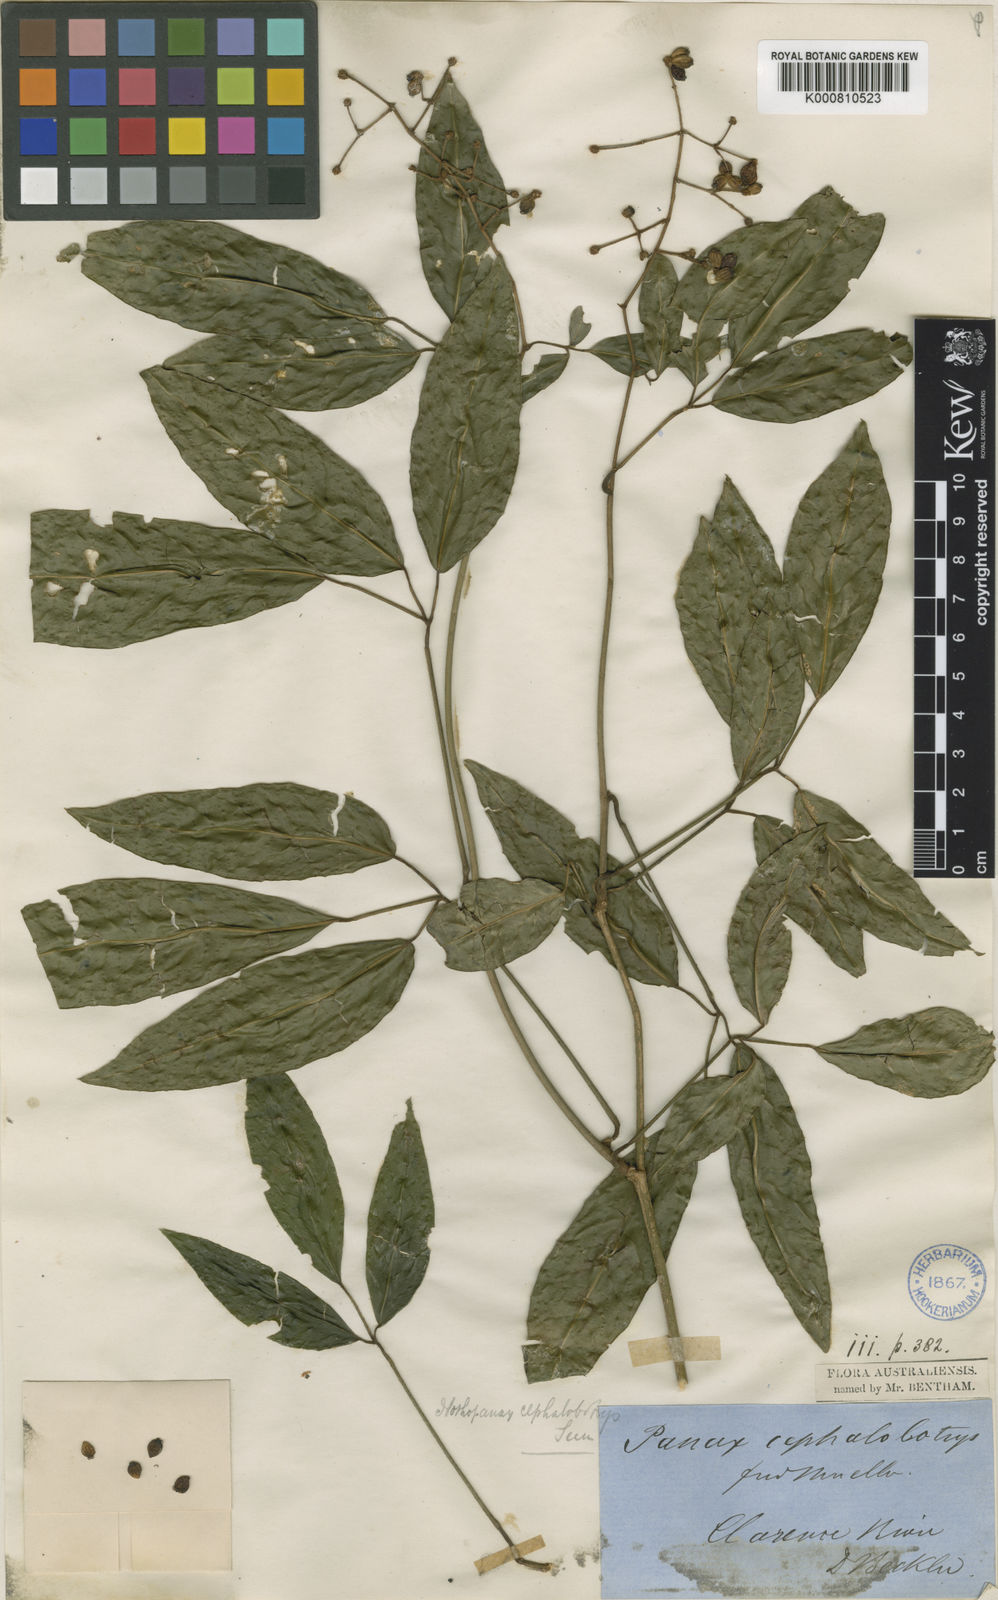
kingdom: Plantae
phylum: Tracheophyta
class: Magnoliopsida
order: Apiales
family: Araliaceae
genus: Cephalaralia
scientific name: Cephalaralia cephalobotrys
